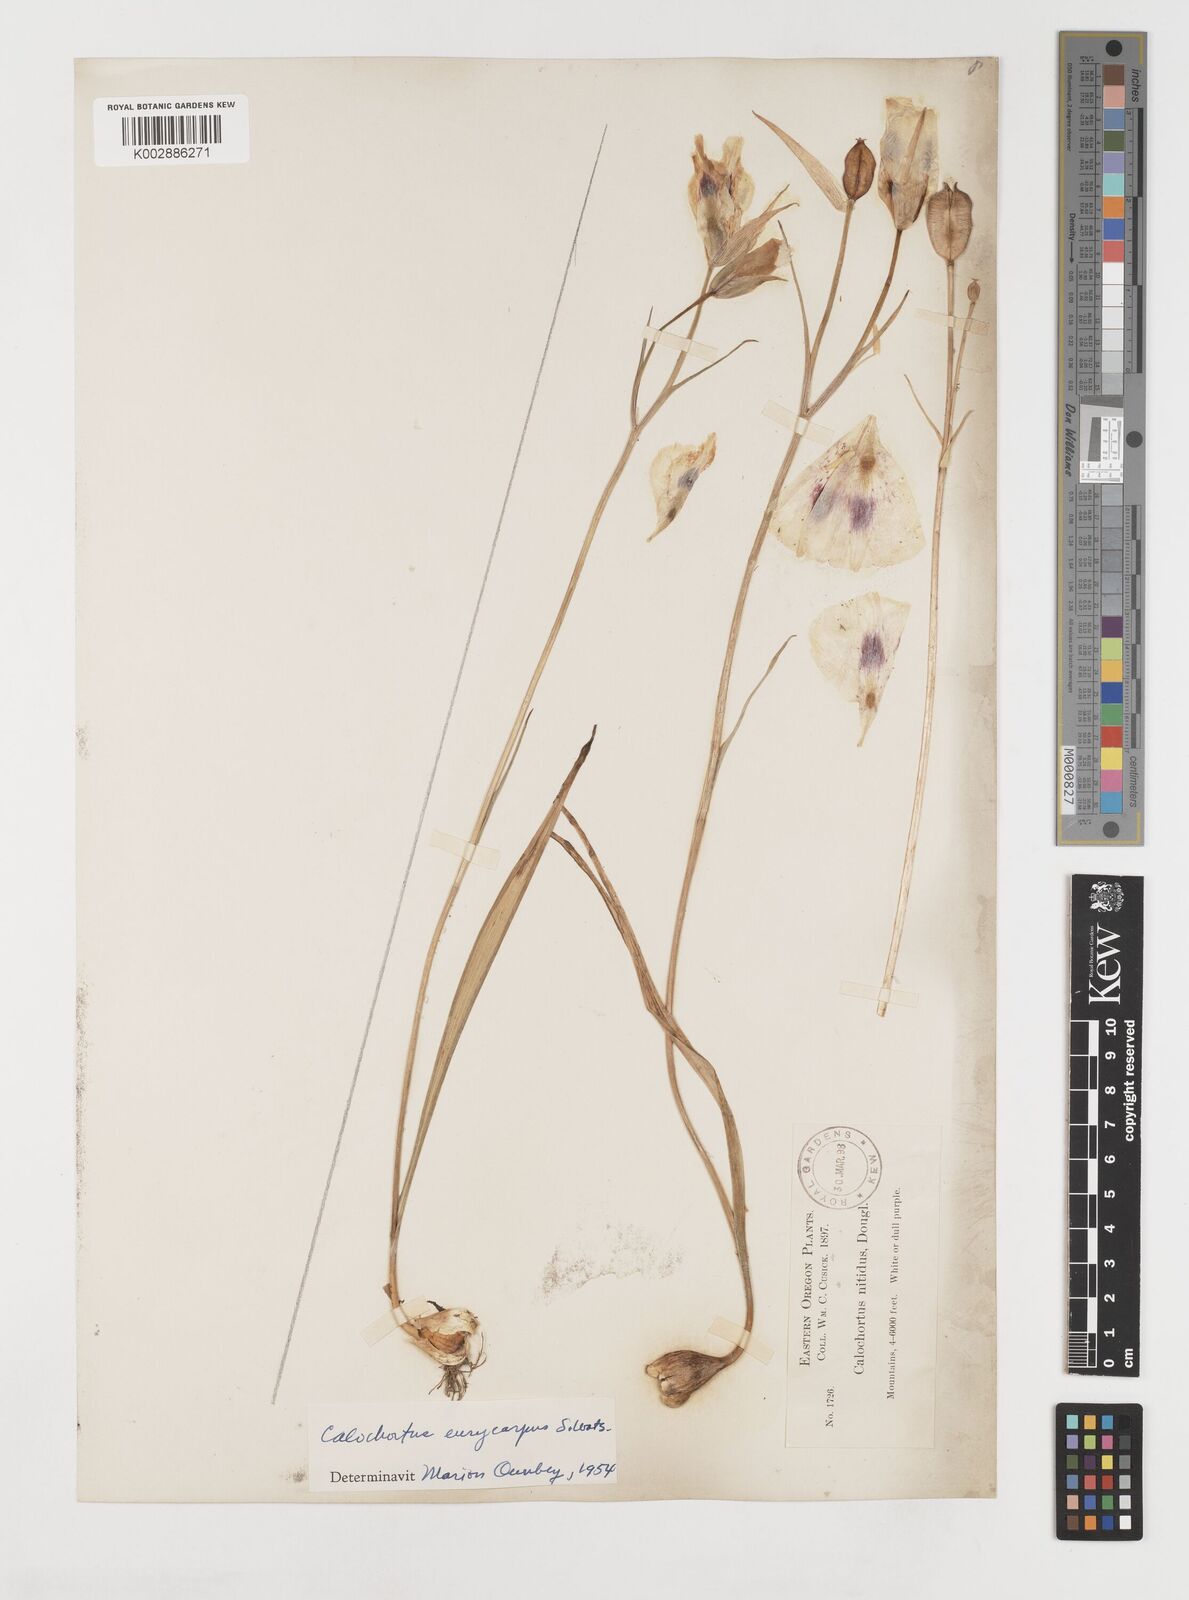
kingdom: Plantae
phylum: Tracheophyta
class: Liliopsida
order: Liliales
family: Liliaceae
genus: Calochortus
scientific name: Calochortus eurycarpus
